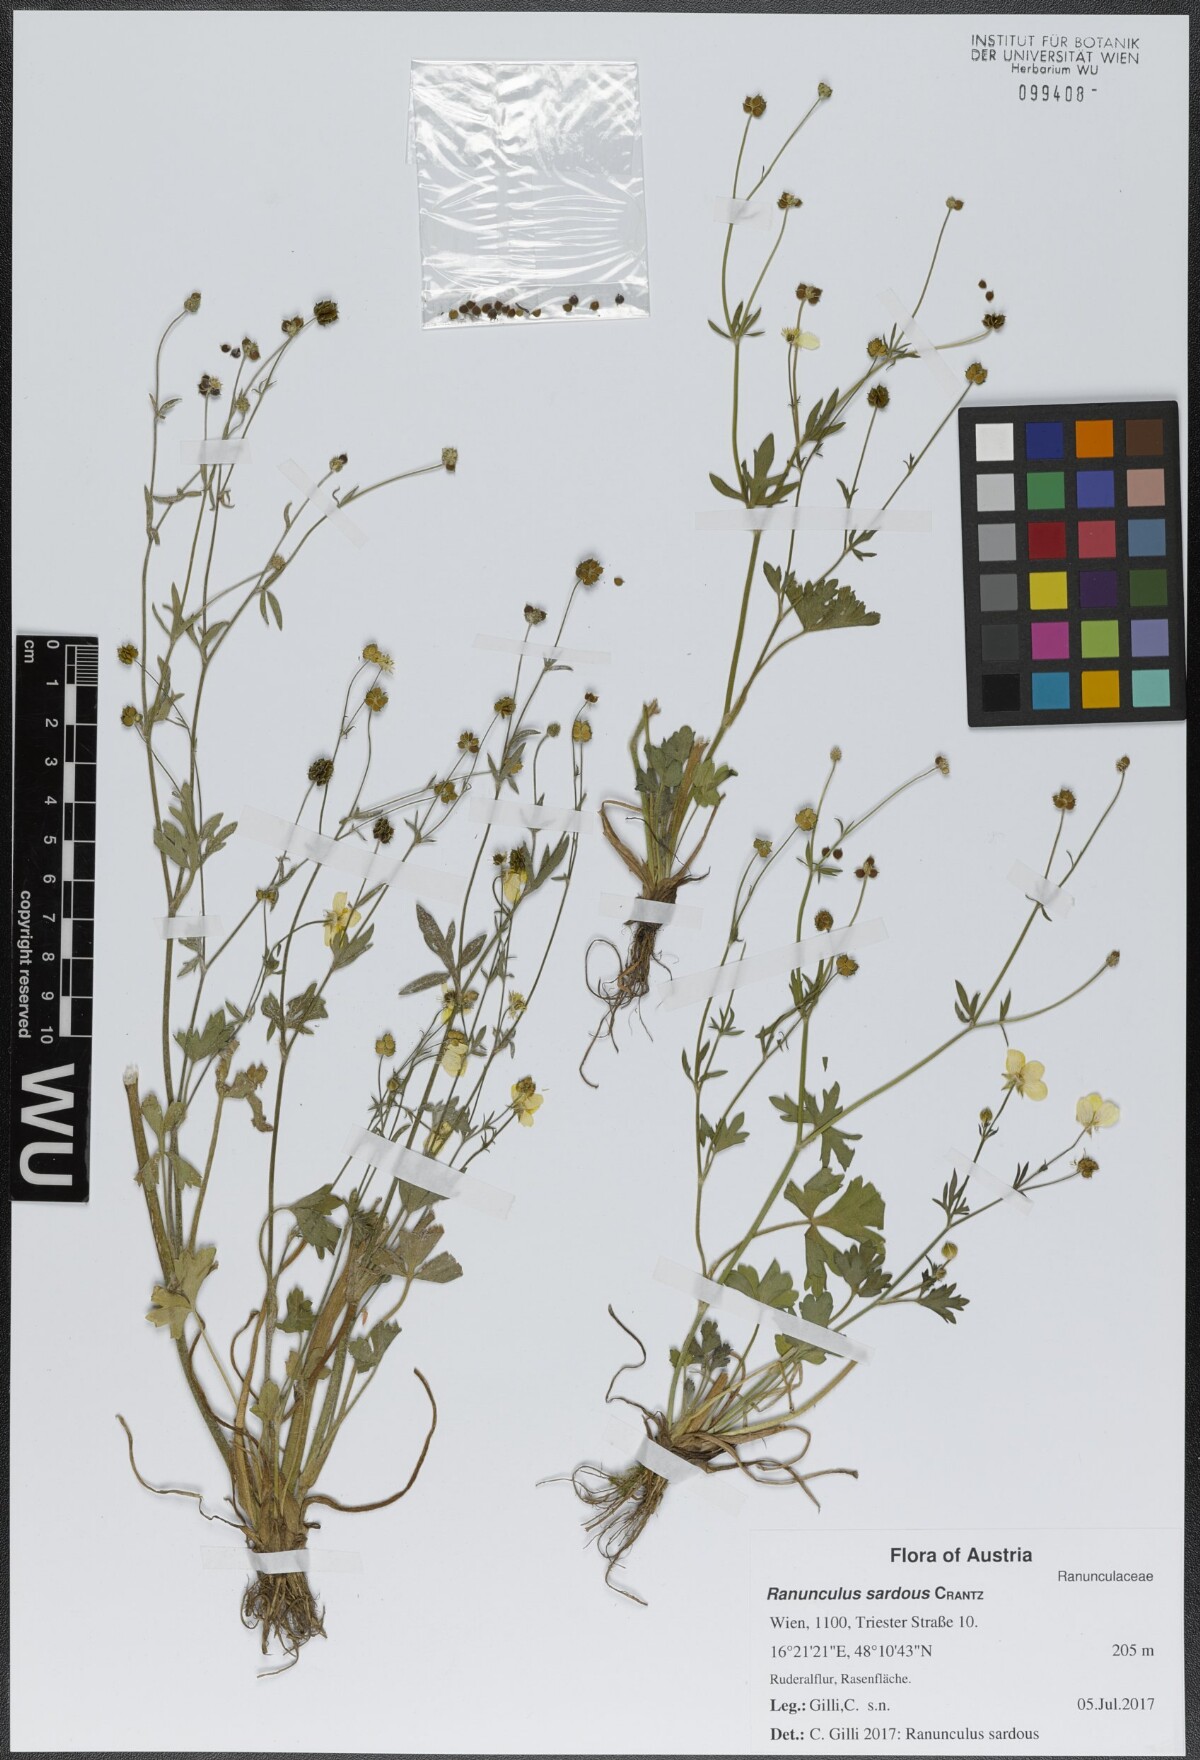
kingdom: Plantae
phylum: Tracheophyta
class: Magnoliopsida
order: Ranunculales
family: Ranunculaceae
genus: Ranunculus
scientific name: Ranunculus sardous
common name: Hairy buttercup
